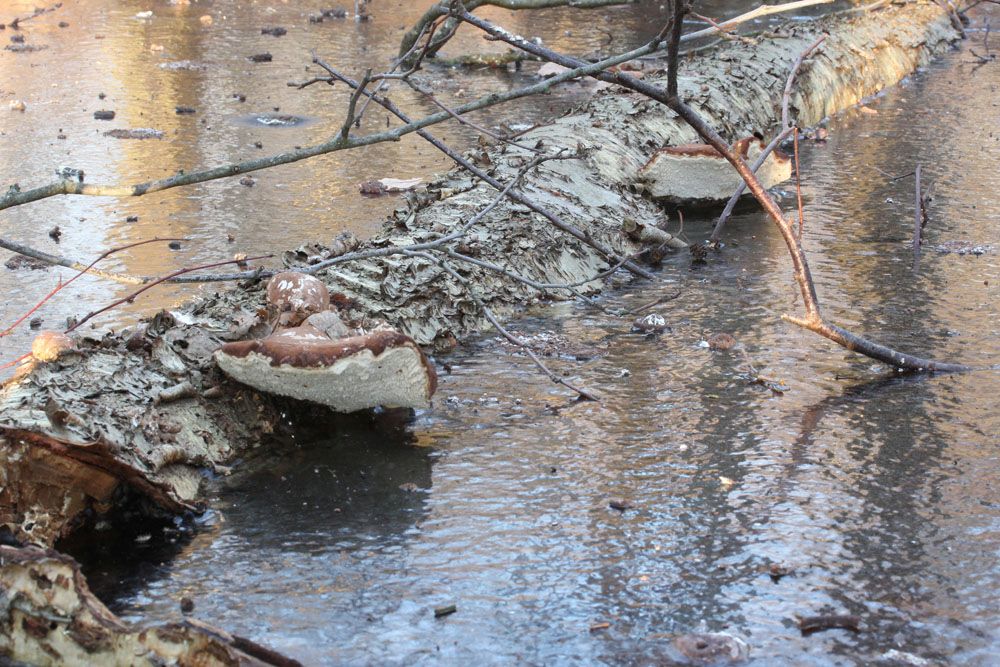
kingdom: Fungi
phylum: Basidiomycota
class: Agaricomycetes
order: Polyporales
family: Fomitopsidaceae
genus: Fomitopsis
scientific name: Fomitopsis betulina
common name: birkeporesvamp
